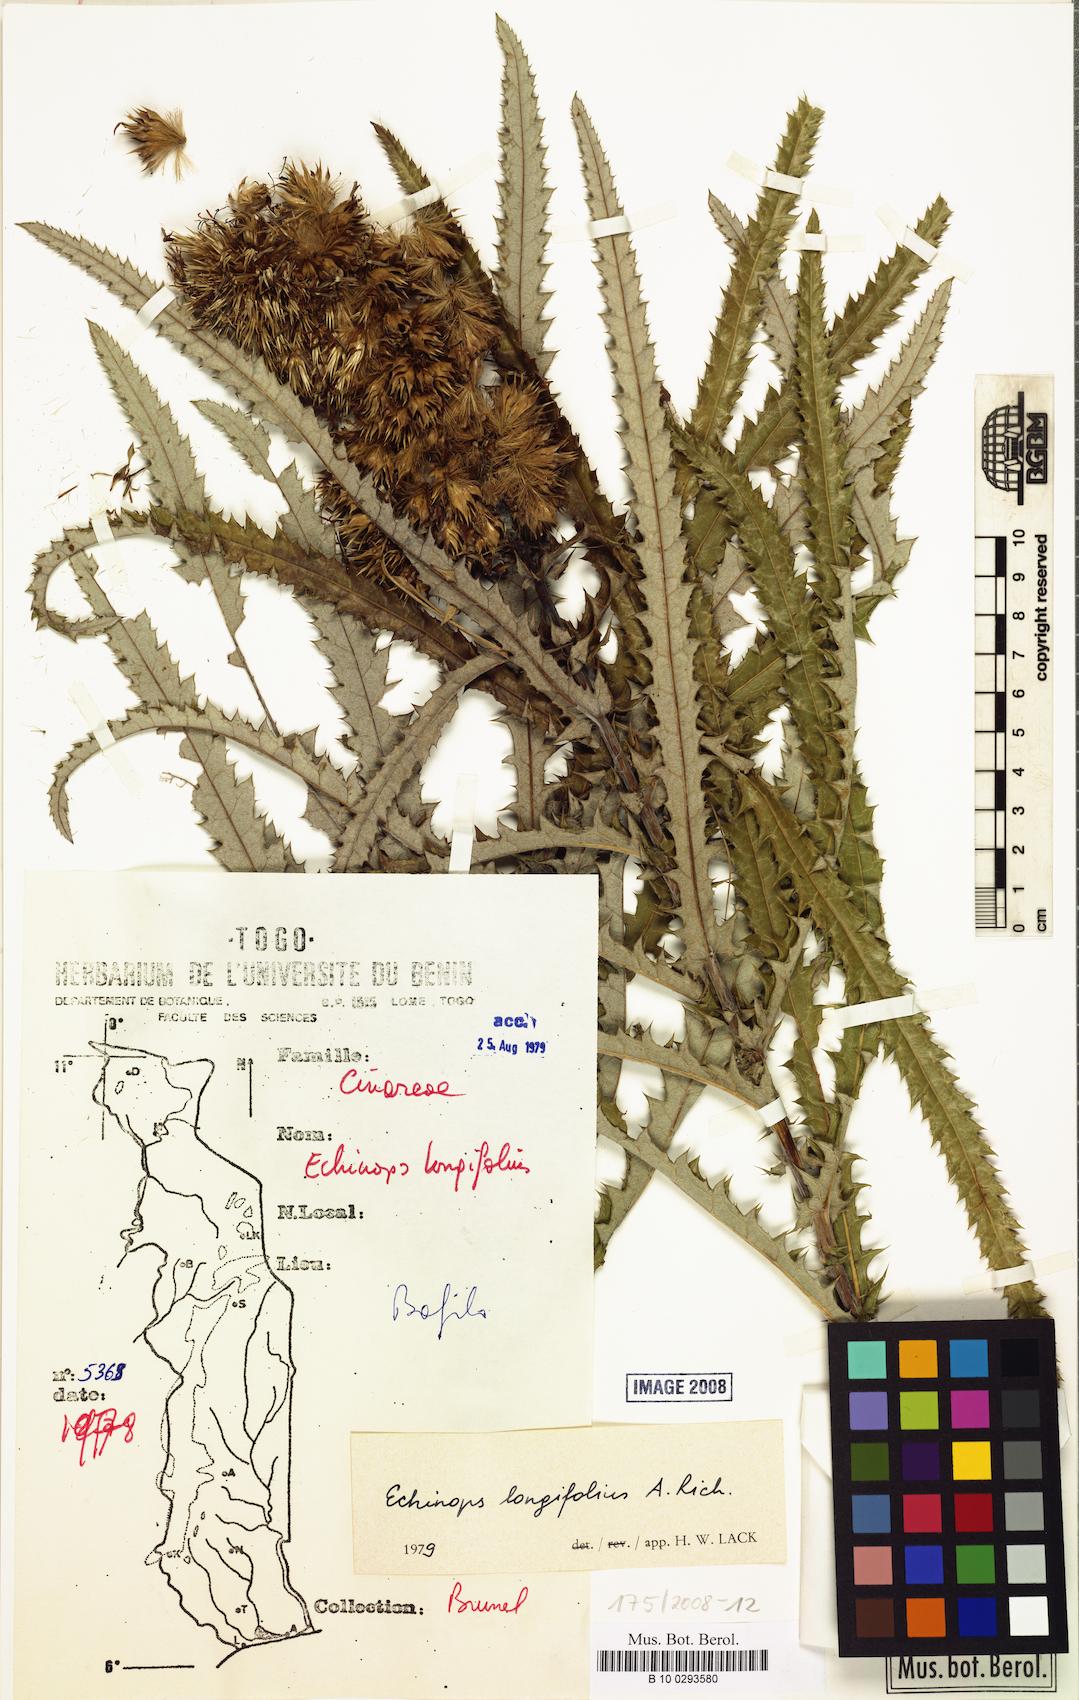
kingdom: Plantae
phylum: Tracheophyta
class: Magnoliopsida
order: Asterales
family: Asteraceae
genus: Echinops
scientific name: Echinops longifolius
